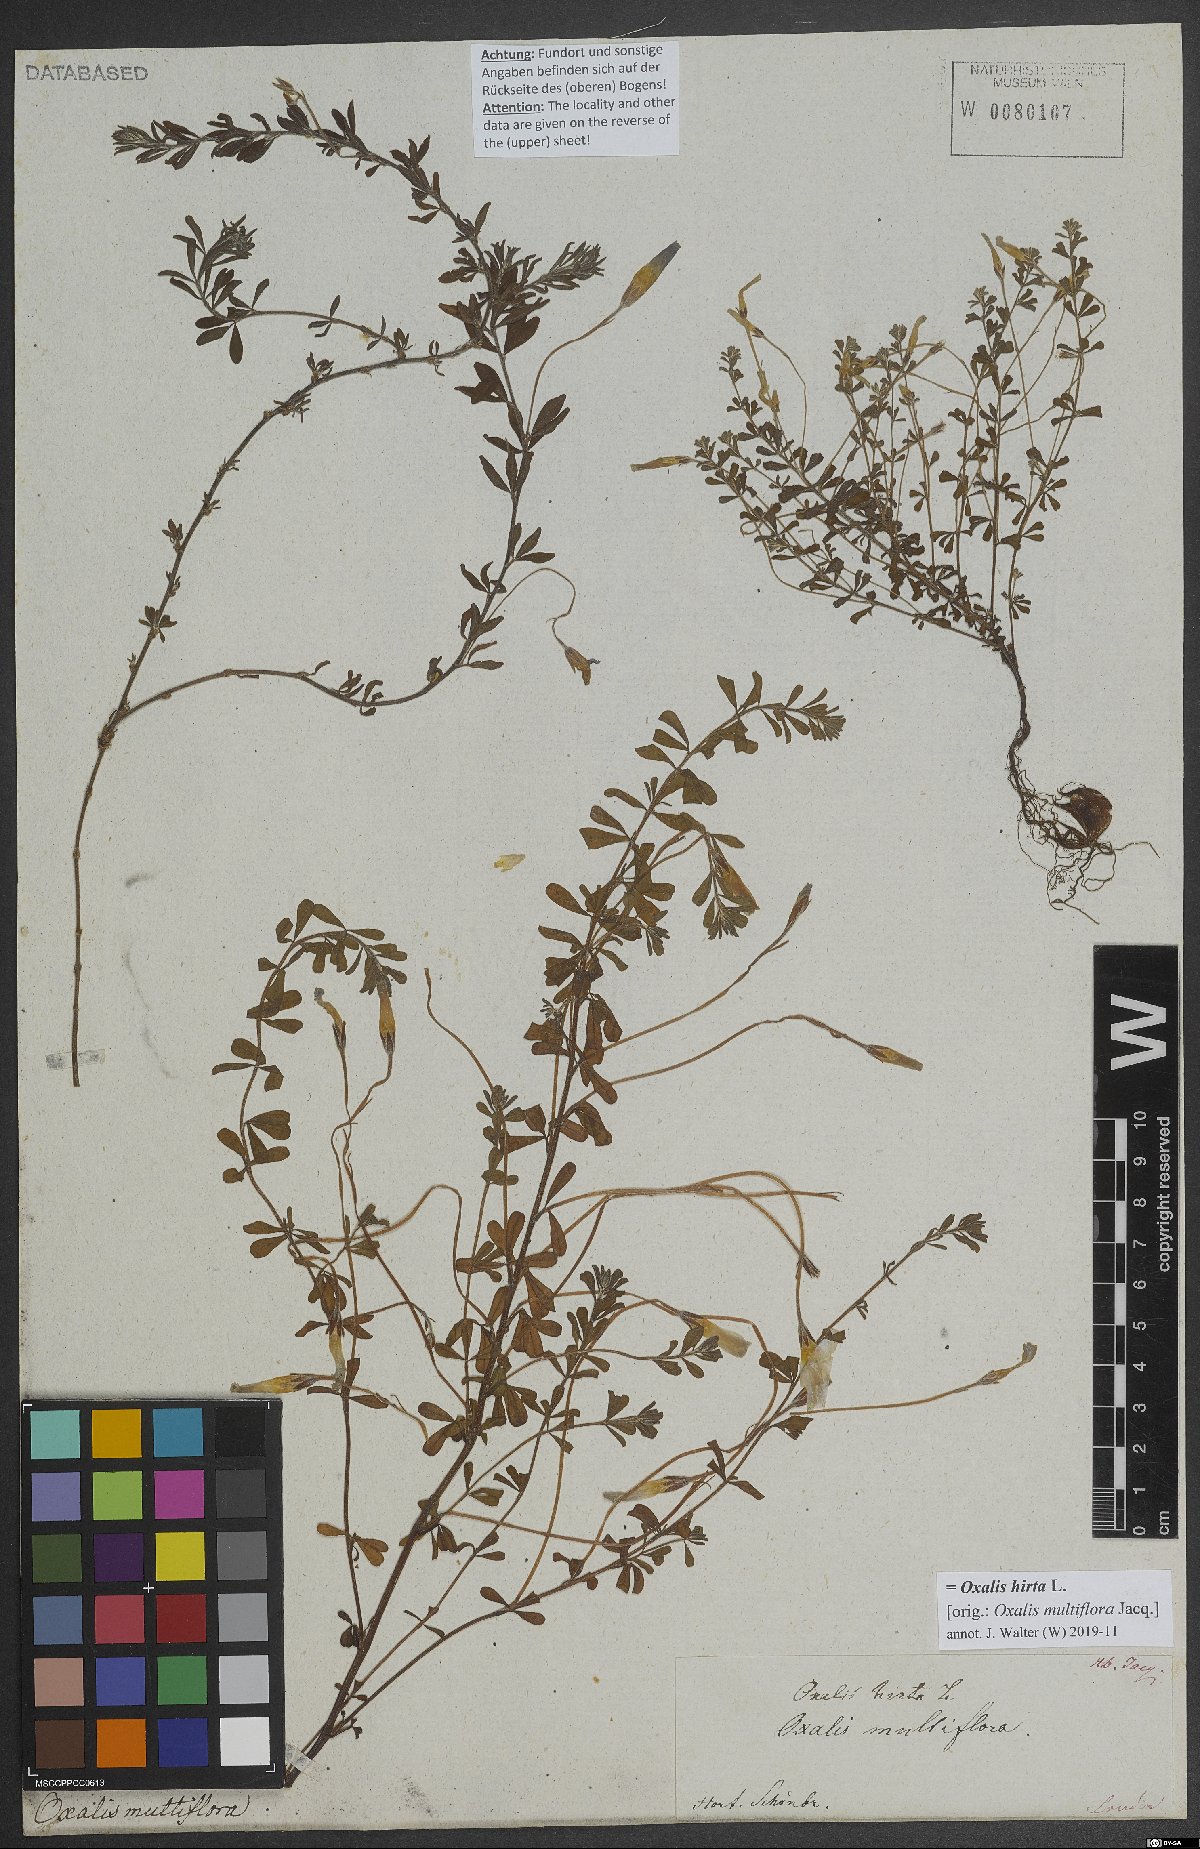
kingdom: Plantae
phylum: Tracheophyta
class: Magnoliopsida
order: Oxalidales
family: Oxalidaceae
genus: Oxalis
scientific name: Oxalis hirta
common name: Tropical woodsorrel
